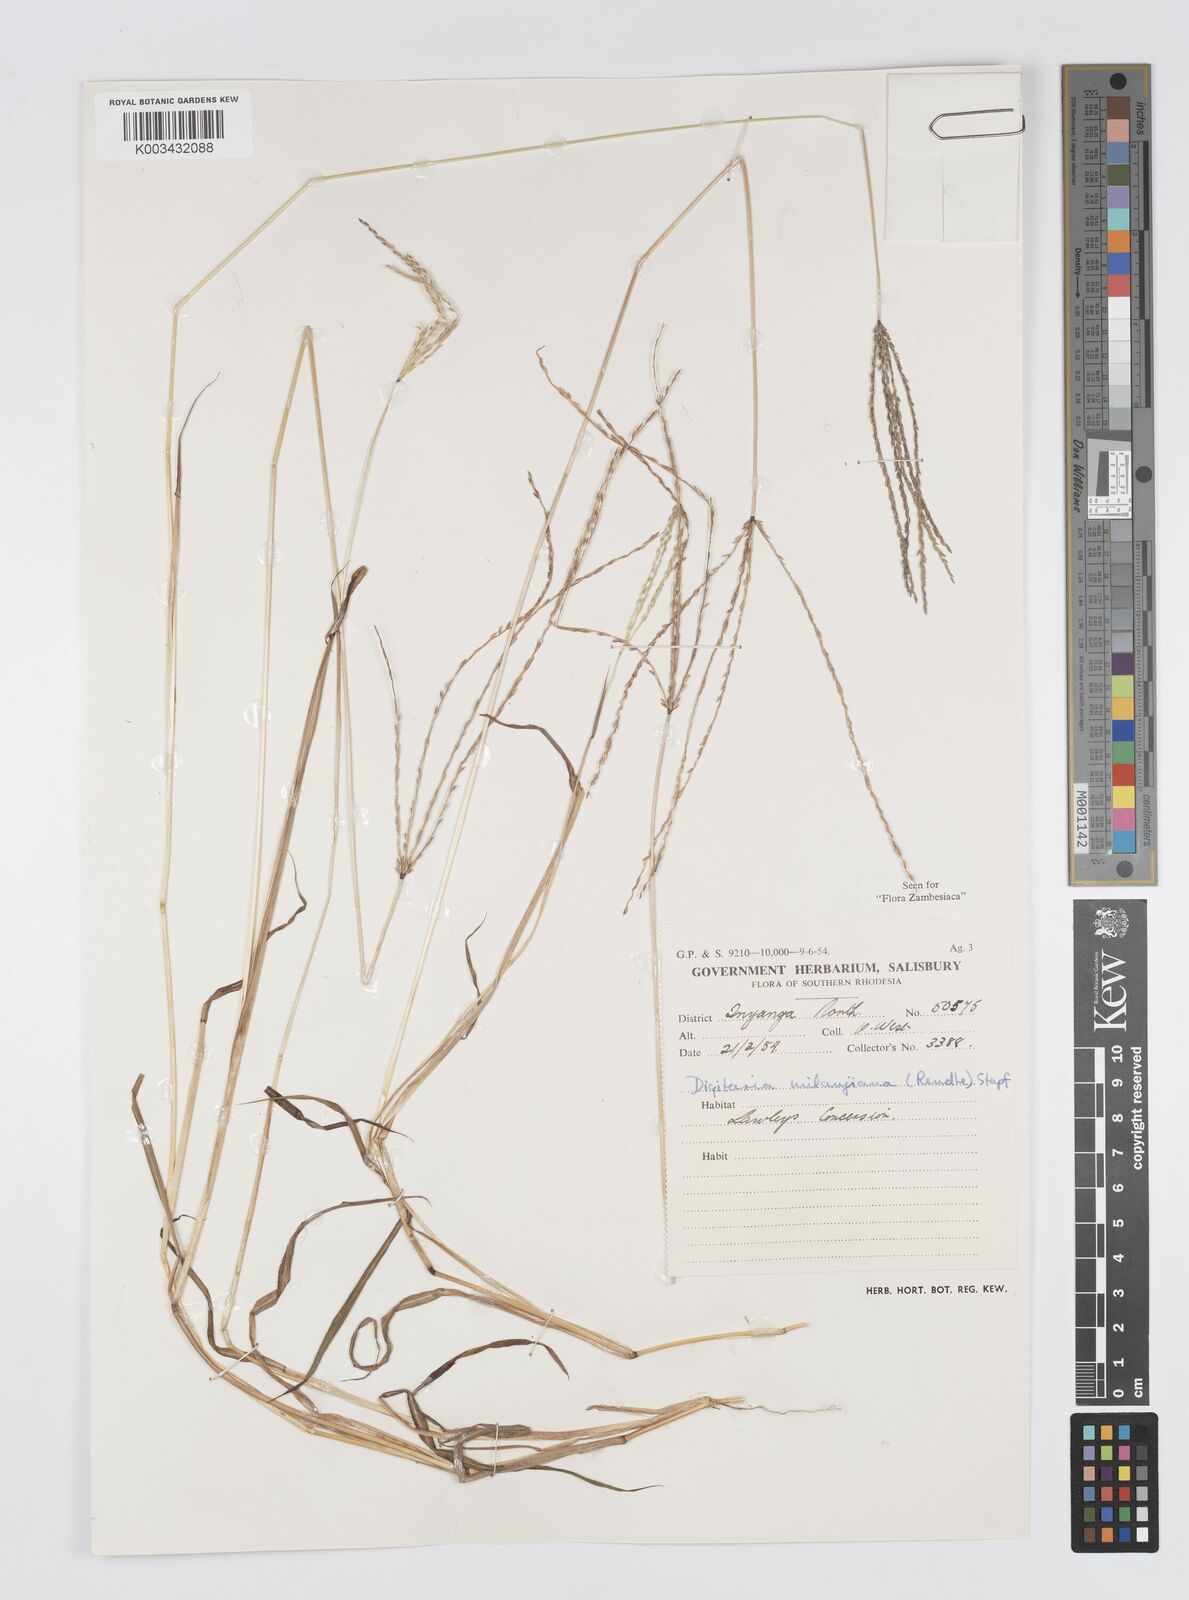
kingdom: Plantae
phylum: Tracheophyta
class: Liliopsida
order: Poales
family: Poaceae
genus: Digitaria
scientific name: Digitaria milanjiana
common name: Madagascar crabgrass
